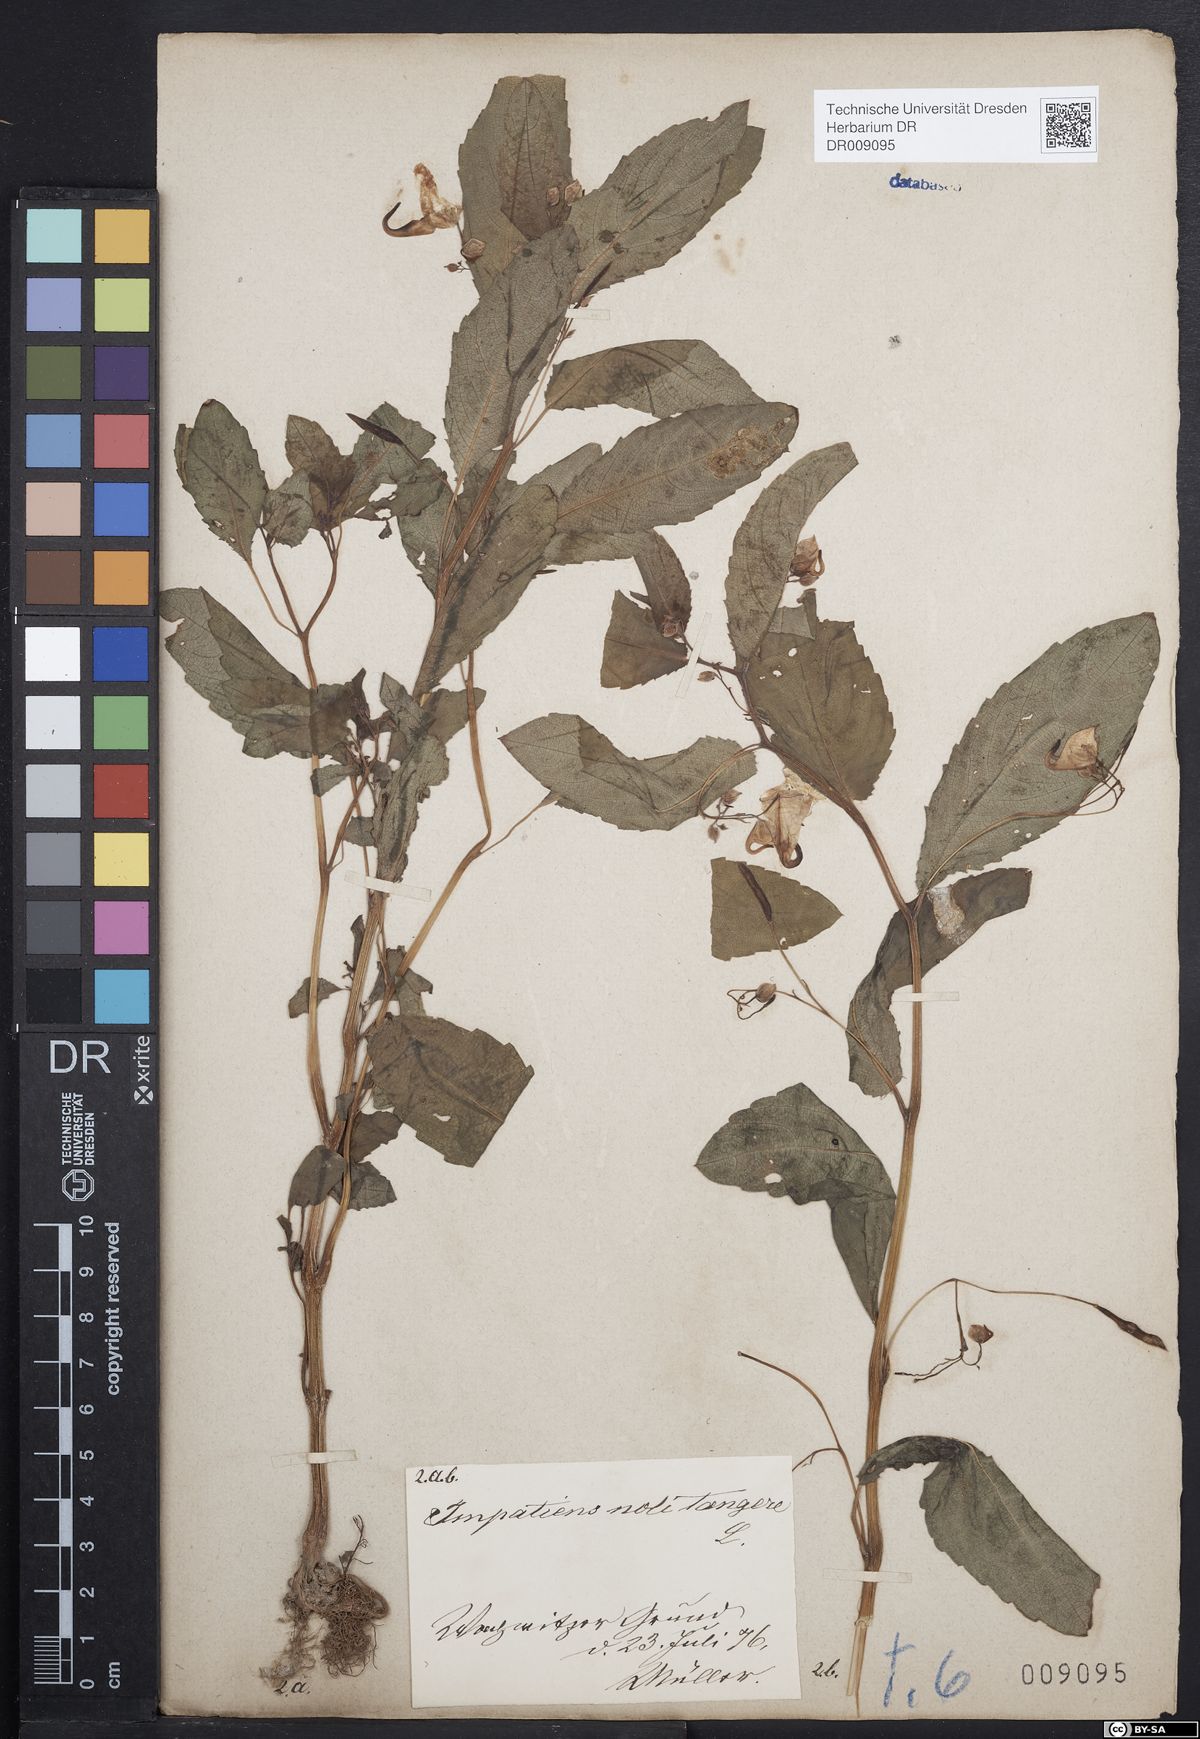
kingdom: Plantae
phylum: Tracheophyta
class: Magnoliopsida
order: Ericales
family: Balsaminaceae
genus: Impatiens
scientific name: Impatiens noli-tangere
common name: Touch-me-not balsam
